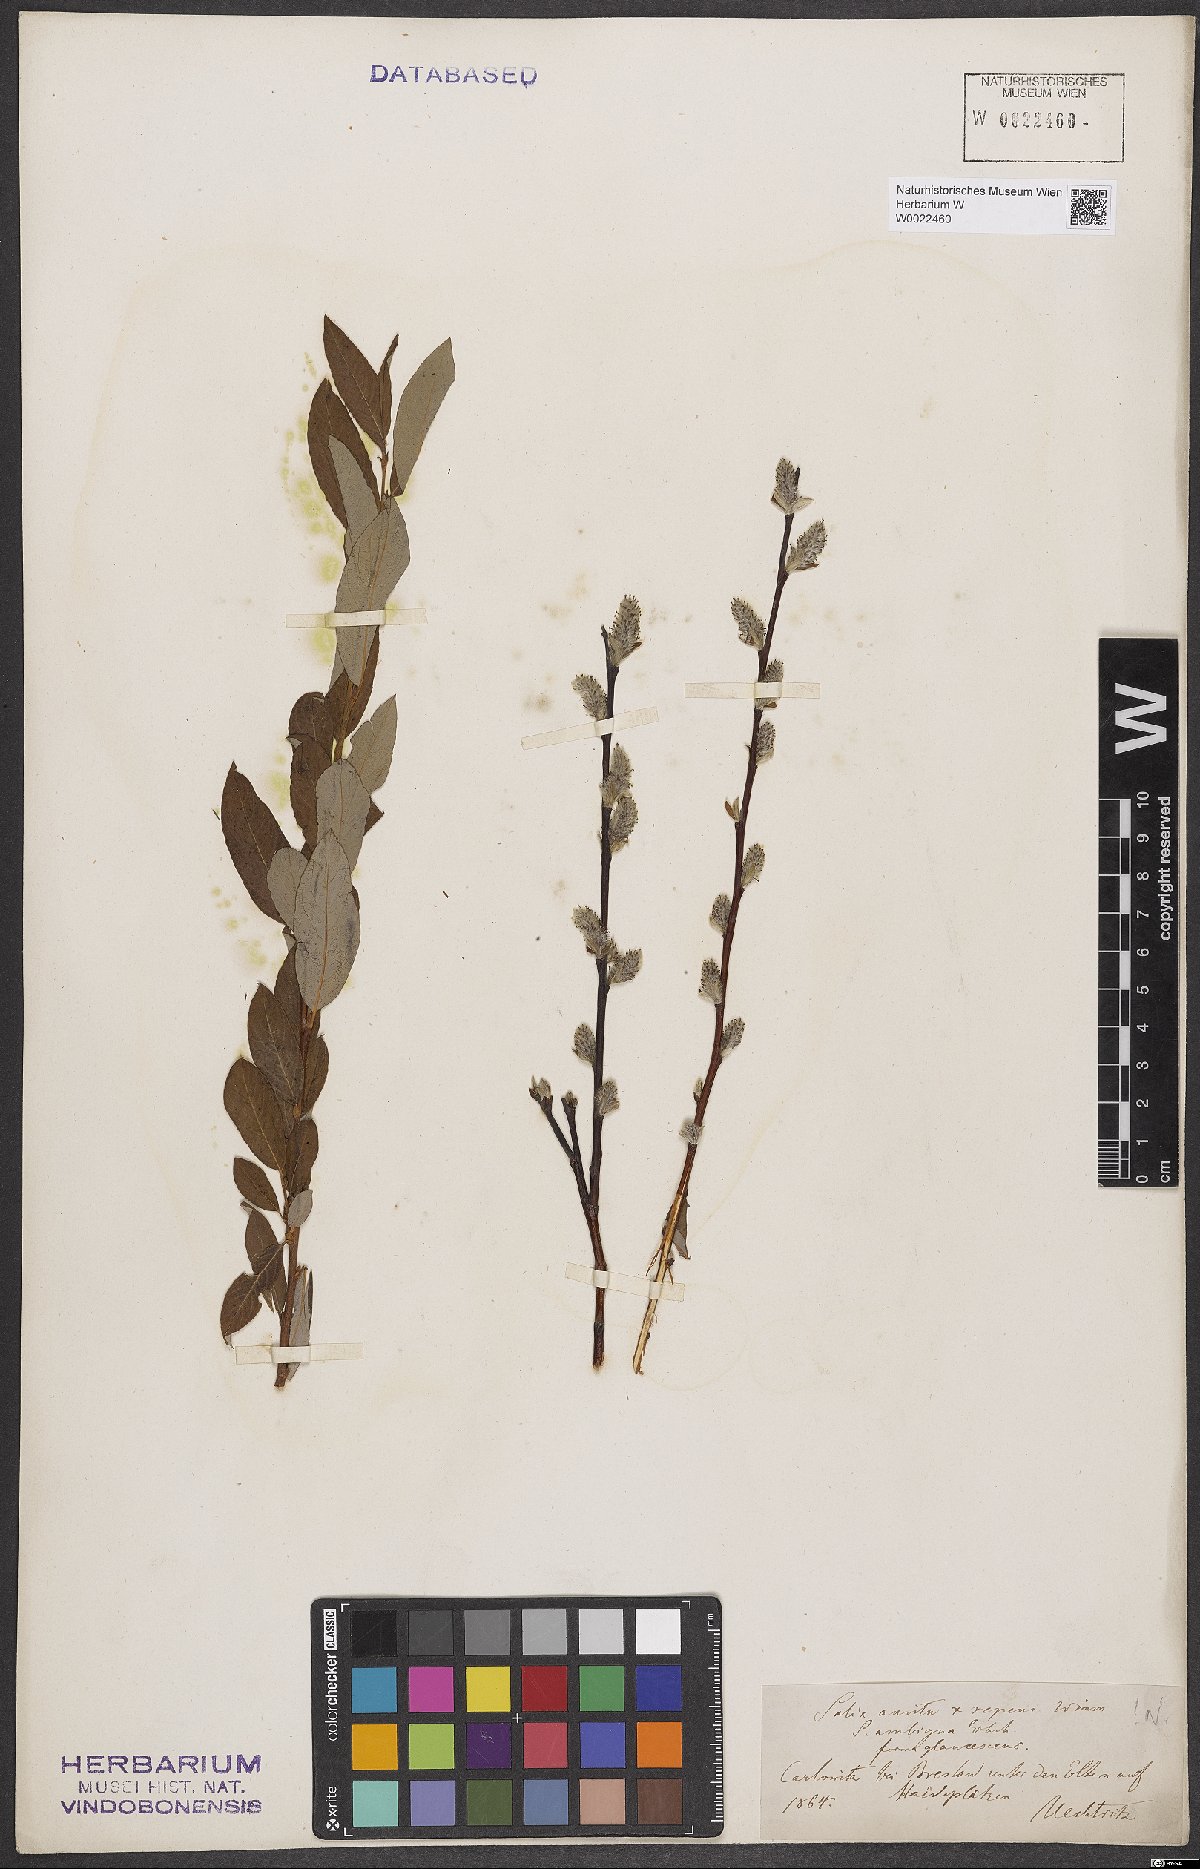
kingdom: Plantae
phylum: Tracheophyta
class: Magnoliopsida
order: Malpighiales
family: Salicaceae
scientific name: Salicaceae
